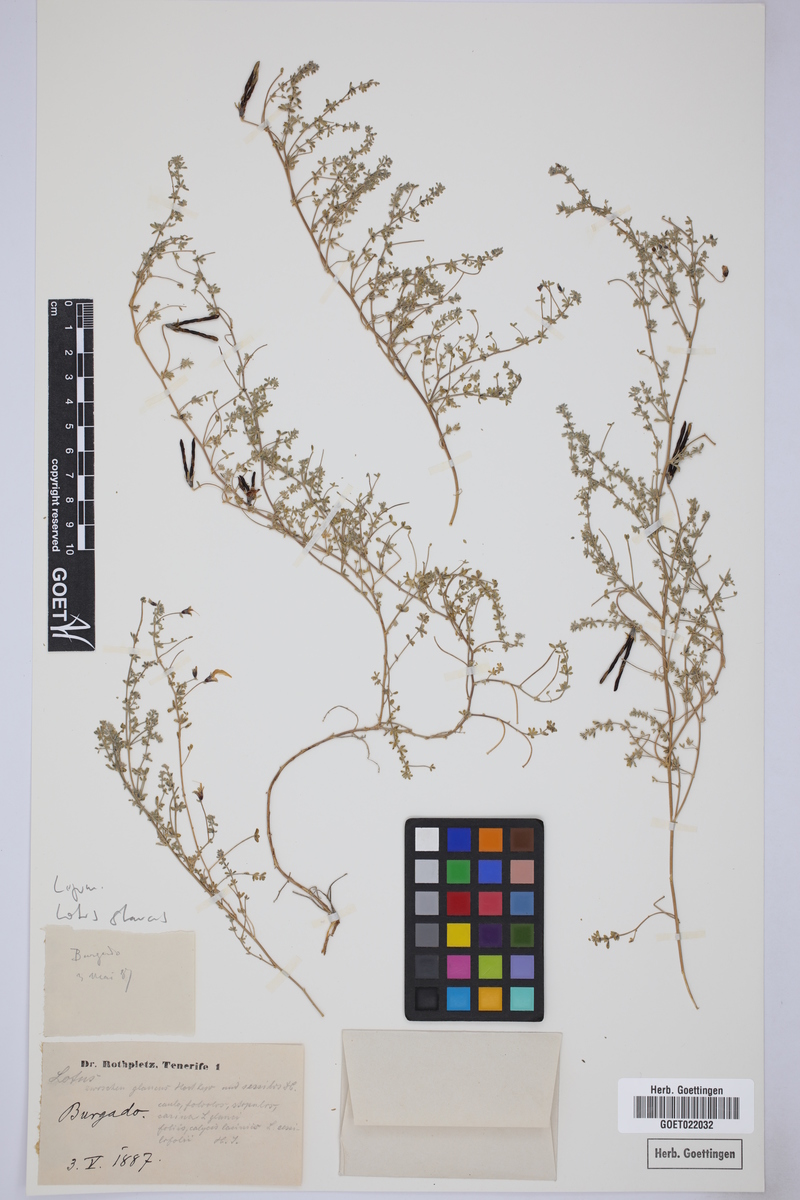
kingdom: Plantae
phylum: Tracheophyta
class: Magnoliopsida
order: Fabales
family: Fabaceae
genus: Lotus
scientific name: Lotus glaucus
